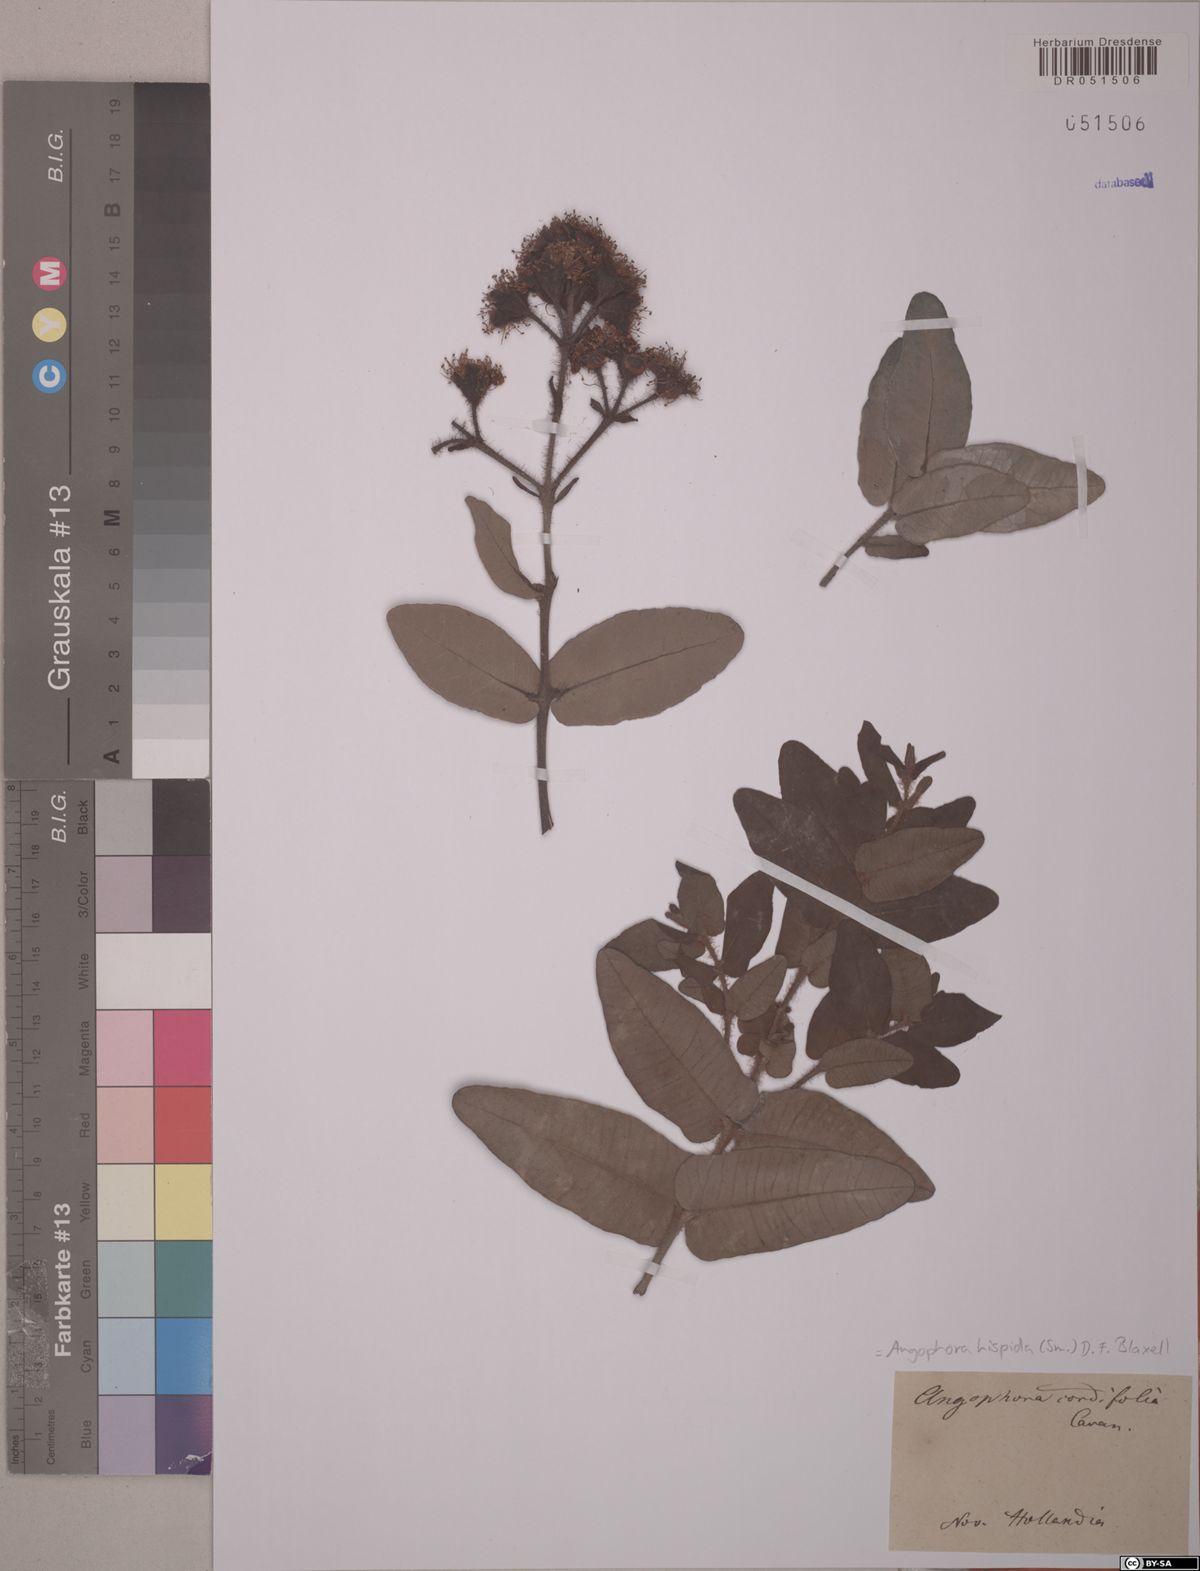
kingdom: Plantae
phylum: Tracheophyta
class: Magnoliopsida
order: Myrtales
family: Myrtaceae
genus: Angophora
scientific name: Angophora hispida
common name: Dwarf-apple
